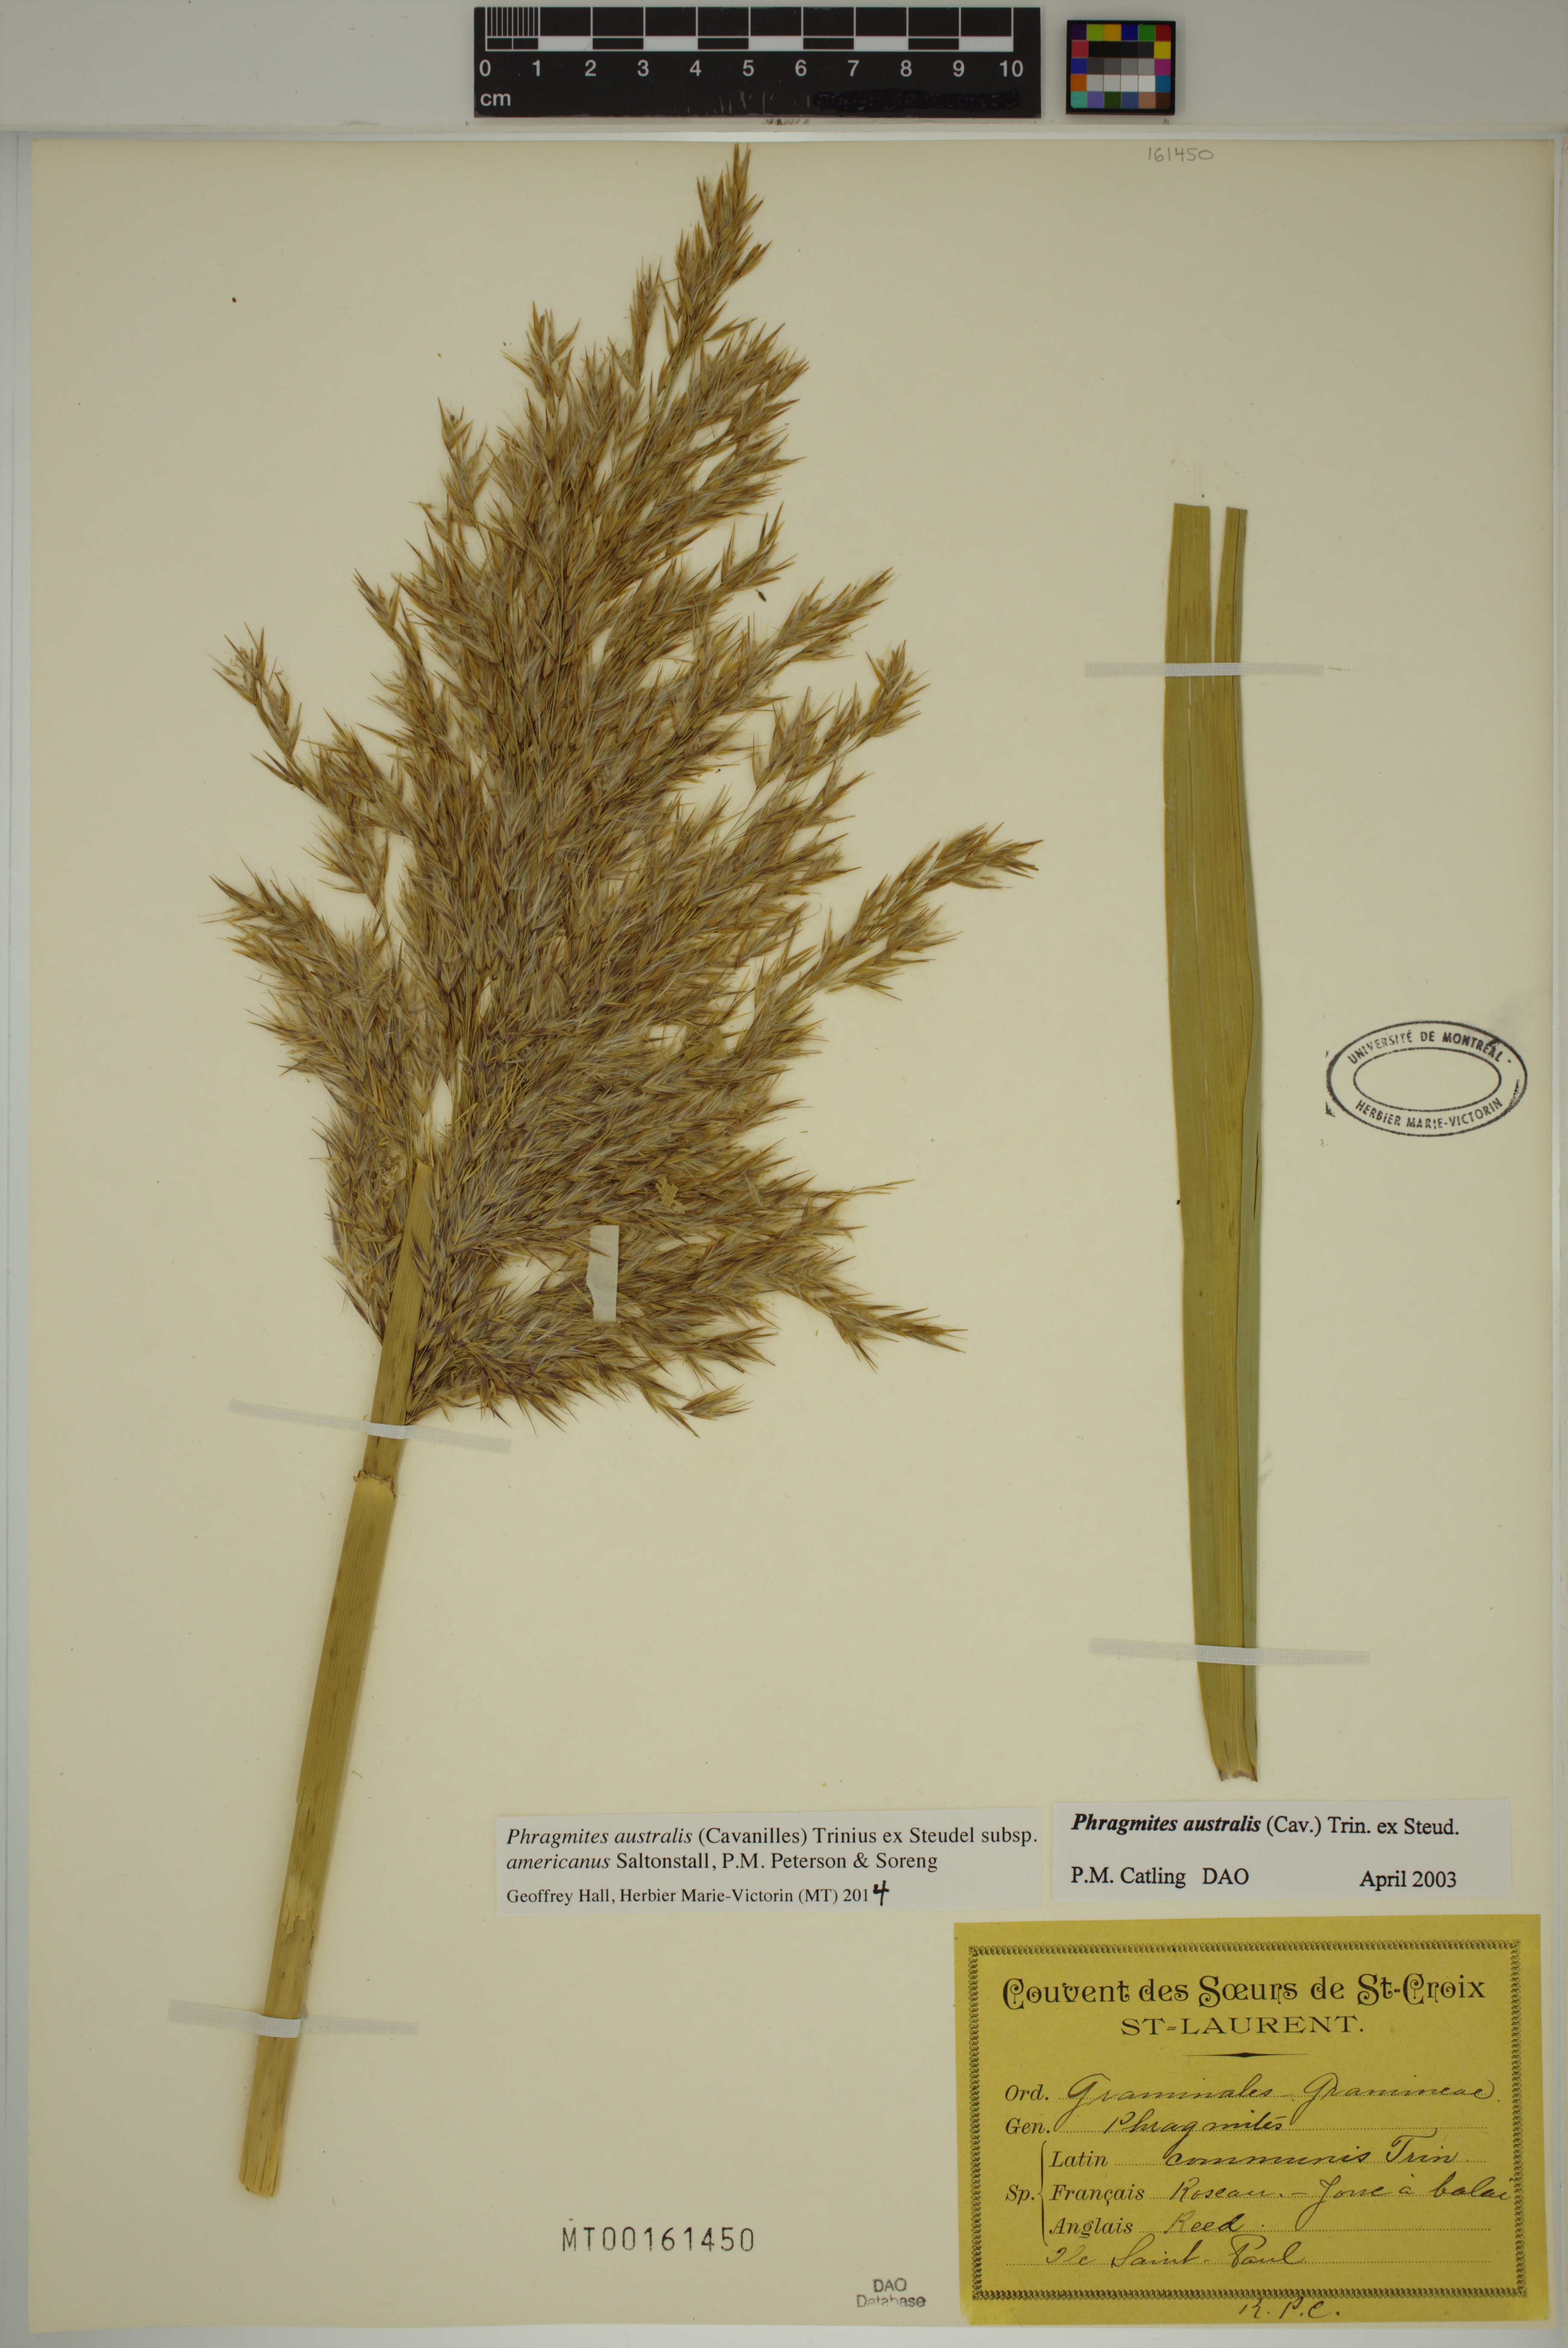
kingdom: Plantae
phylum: Tracheophyta
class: Liliopsida
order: Poales
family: Poaceae
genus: Phragmites
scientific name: Phragmites australis
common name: Common reed
